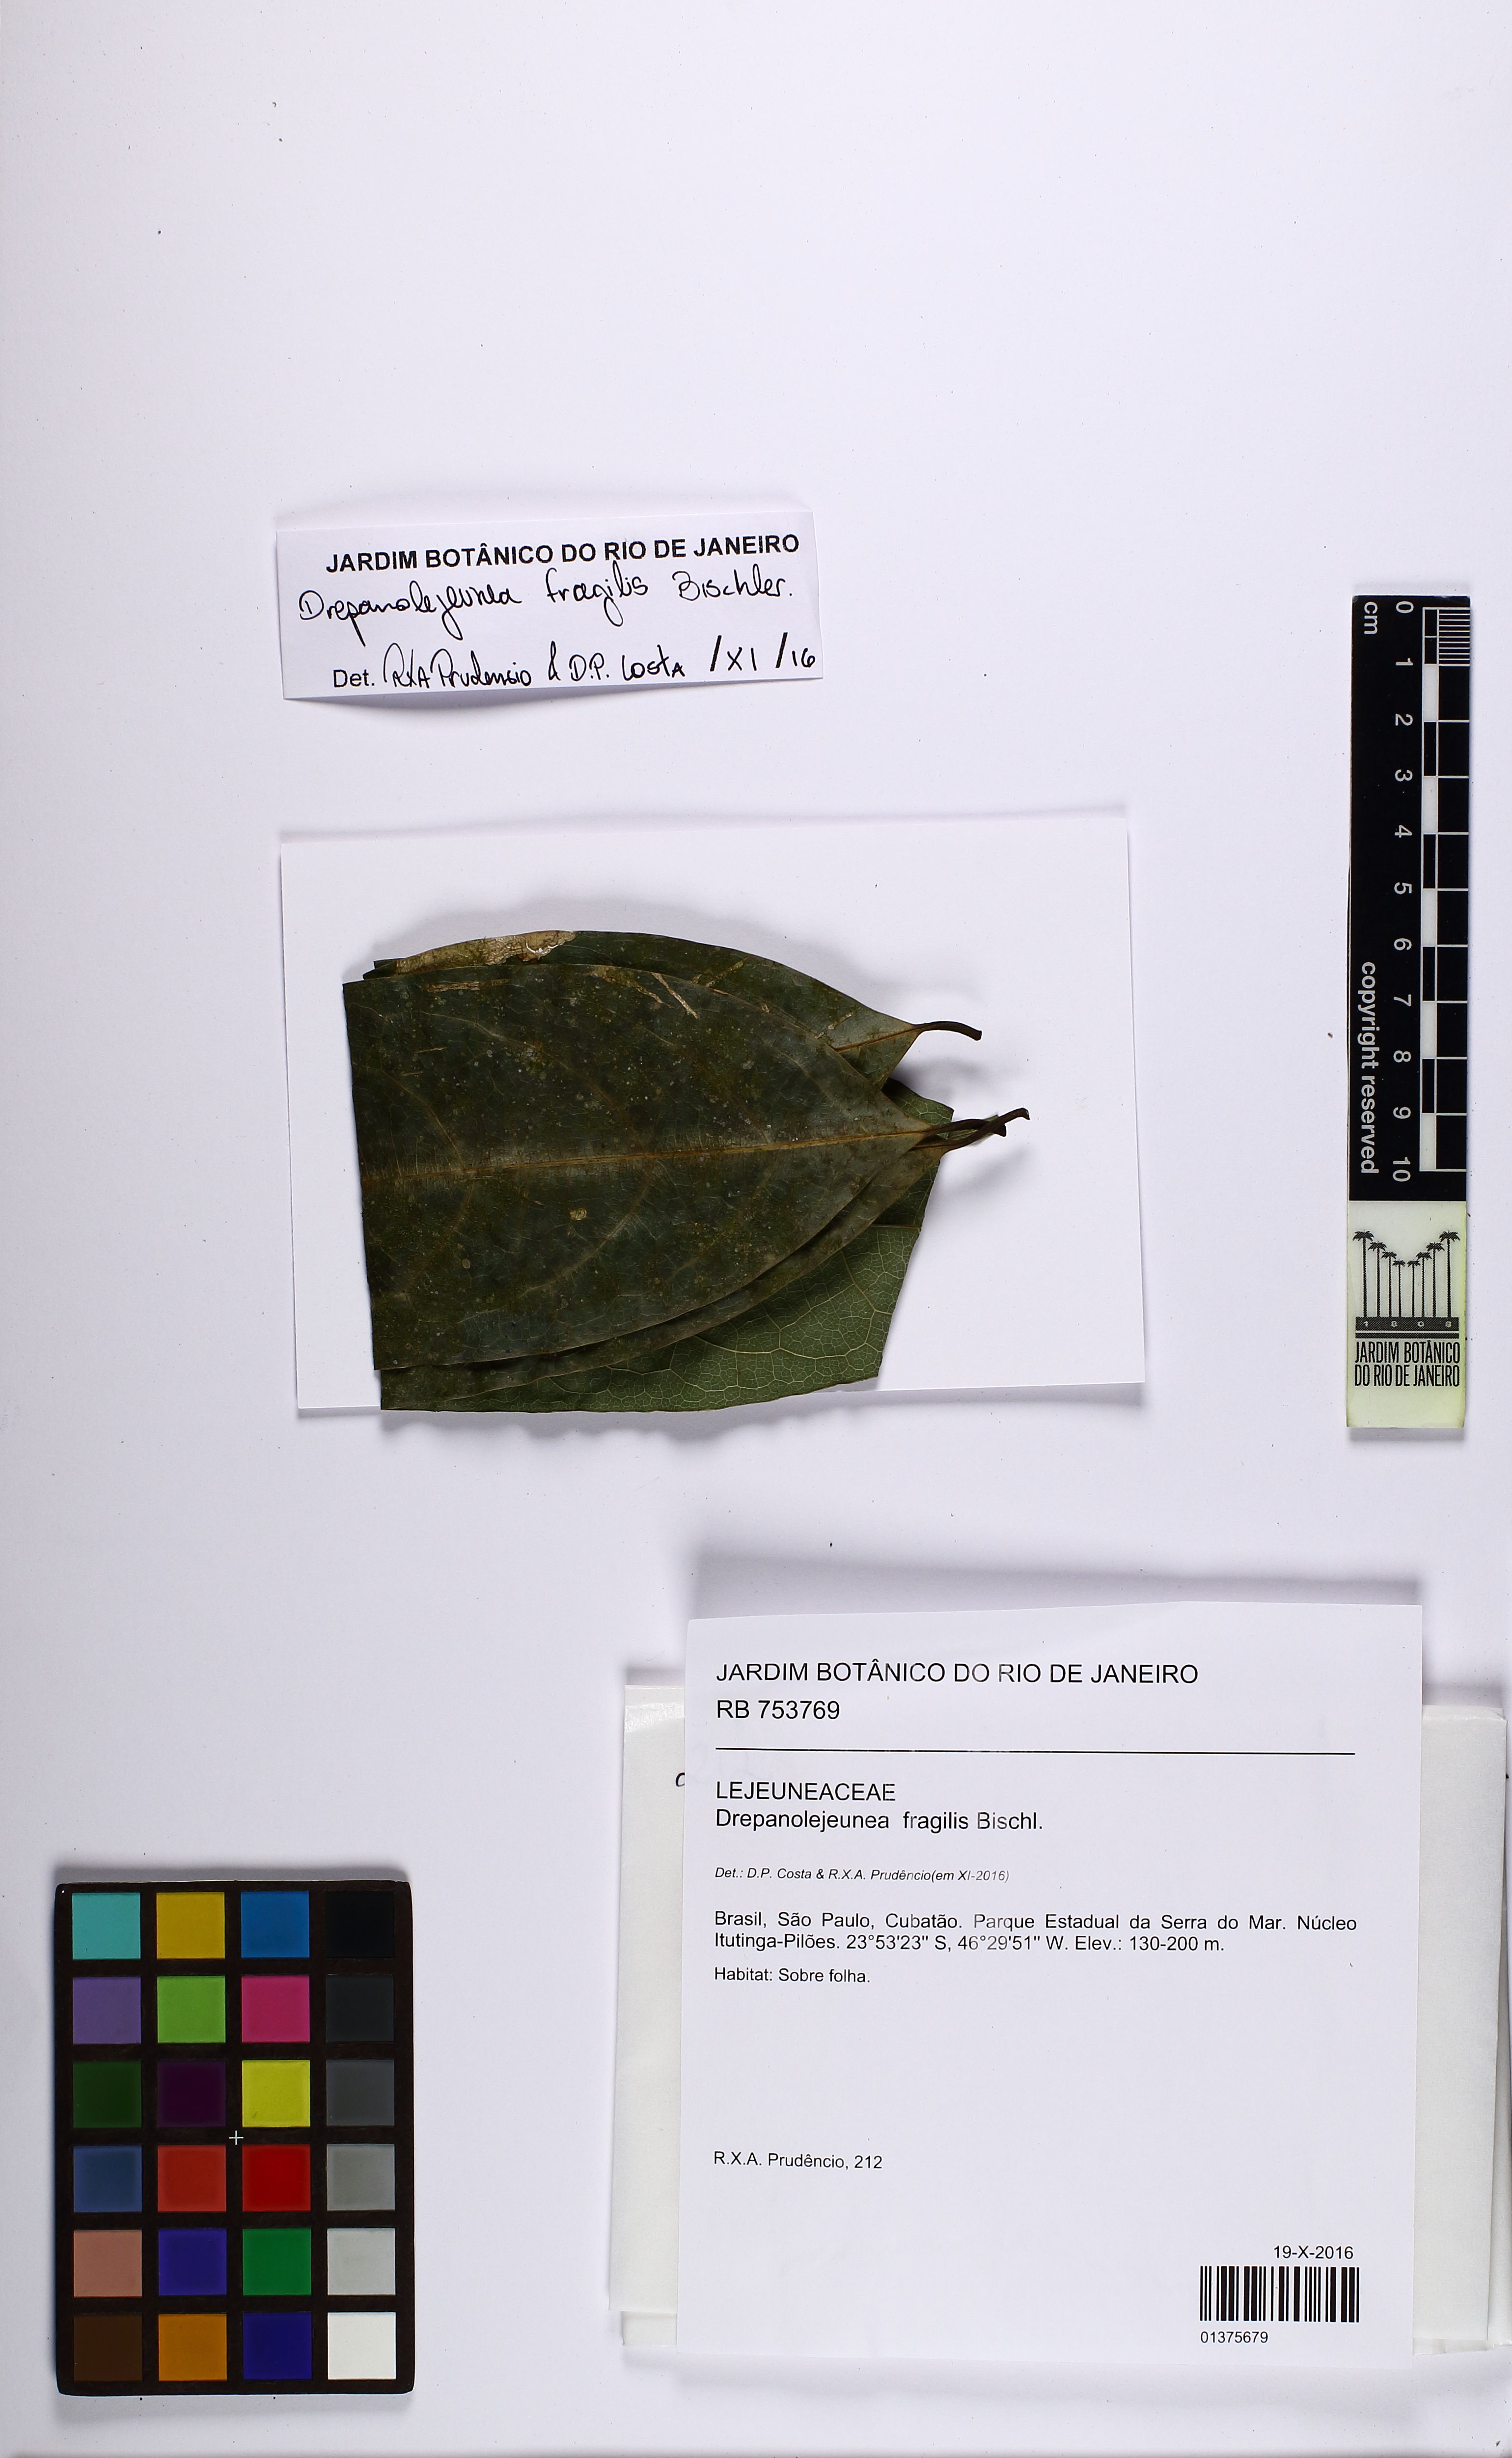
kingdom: Plantae
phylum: Marchantiophyta
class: Jungermanniopsida
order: Porellales
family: Lejeuneaceae
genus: Drepanolejeunea
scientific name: Drepanolejeunea fragilis
